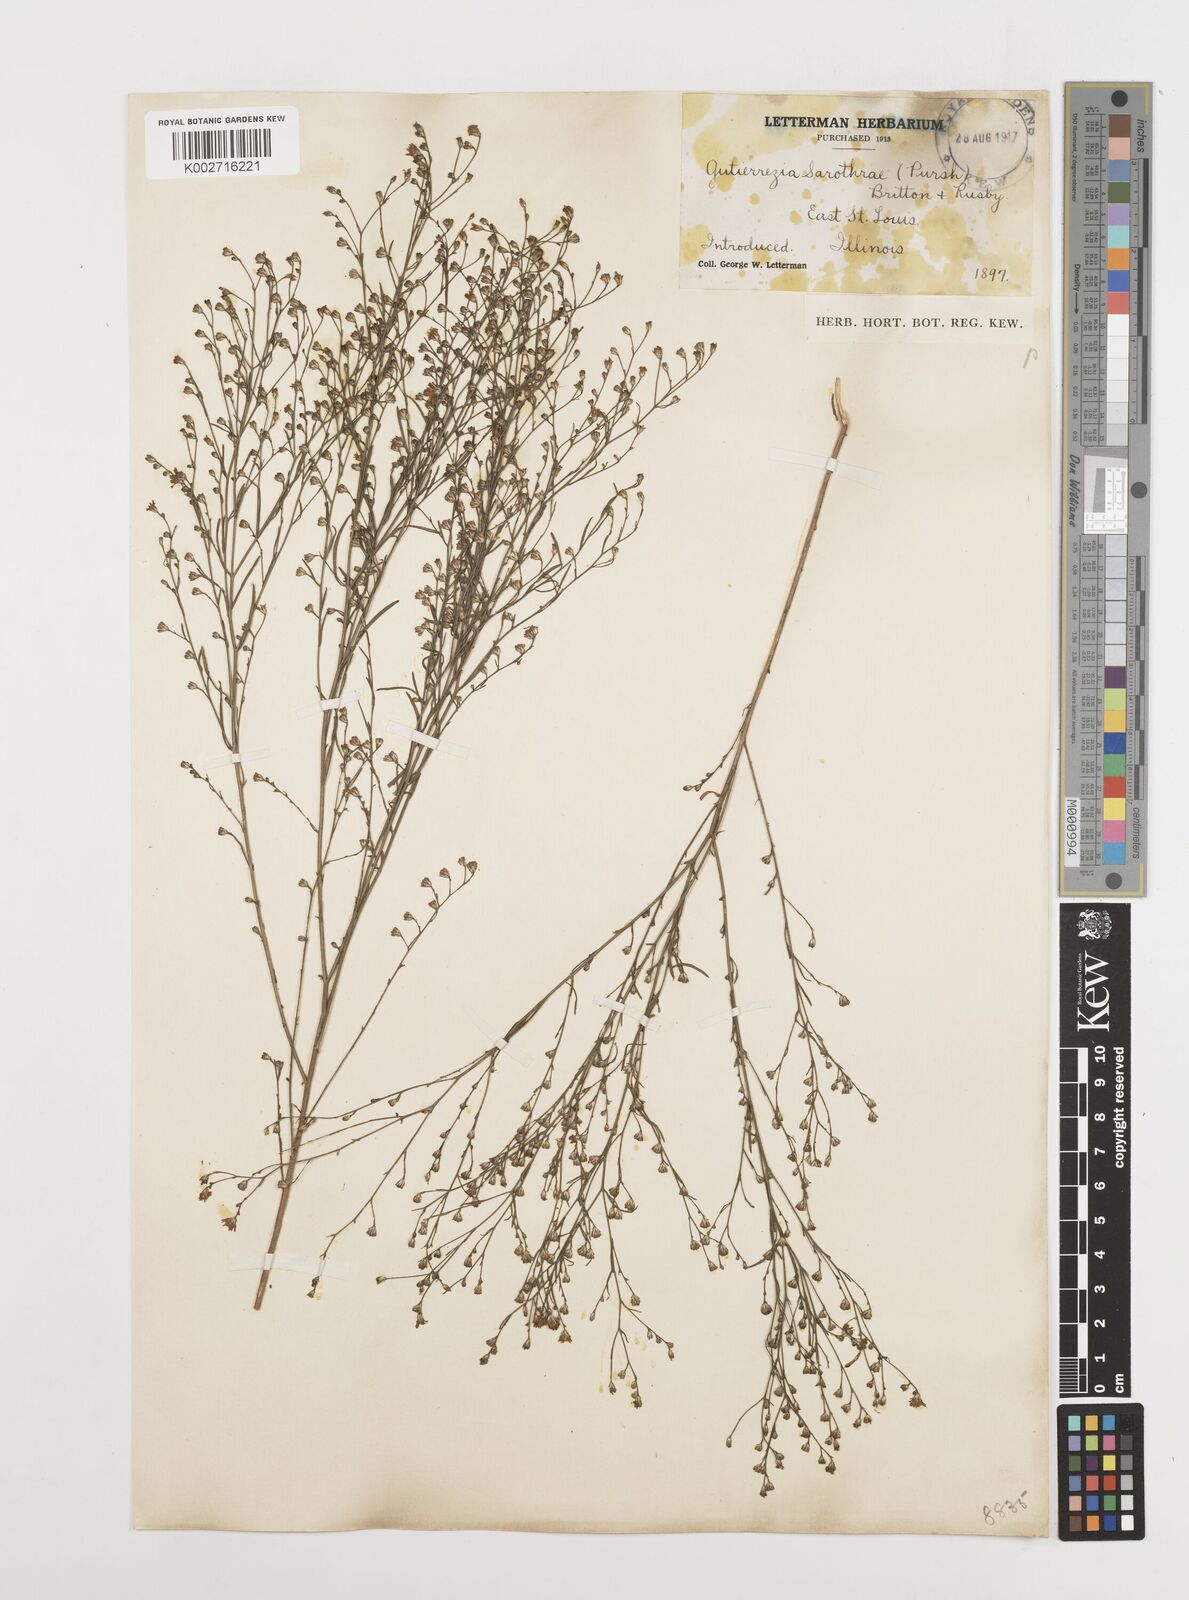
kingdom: Plantae
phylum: Tracheophyta
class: Magnoliopsida
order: Asterales
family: Asteraceae
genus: Gutierrezia
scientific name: Gutierrezia sarothrae
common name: Broom snakeweed
